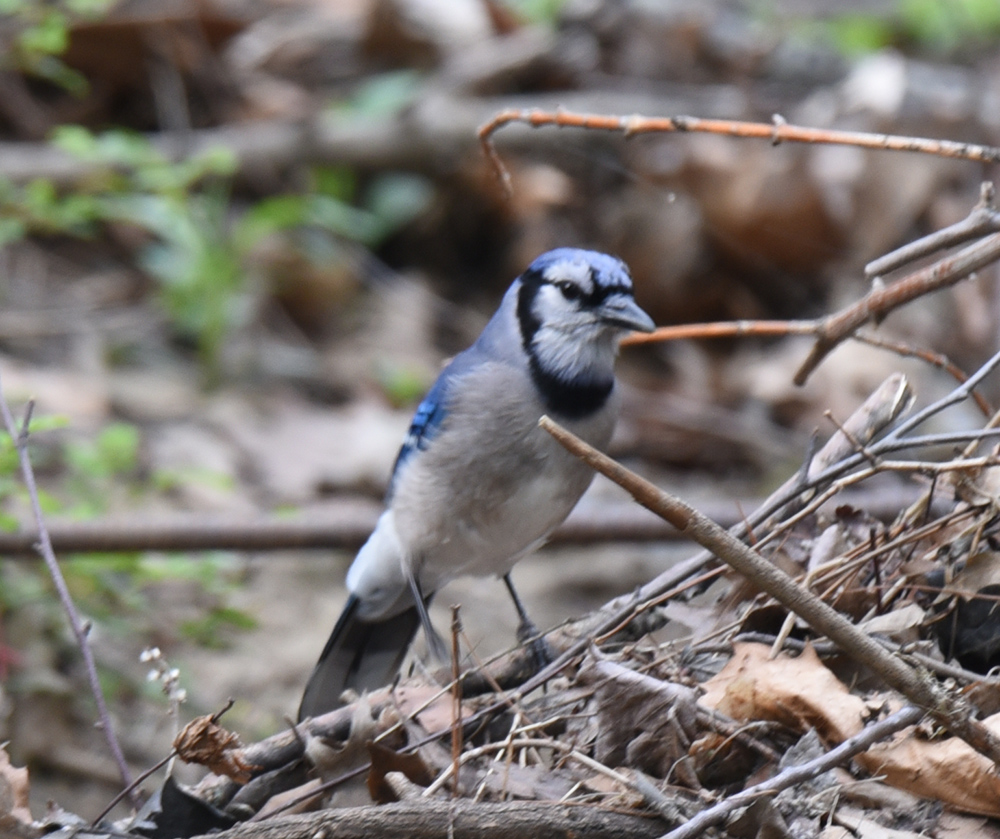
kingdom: Animalia
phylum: Chordata
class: Aves
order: Passeriformes
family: Corvidae
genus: Cyanocitta
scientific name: Cyanocitta cristata
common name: Blue jay
